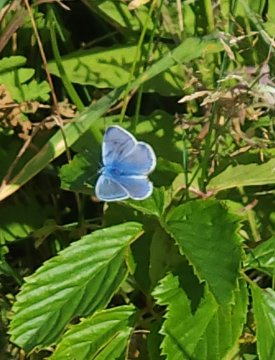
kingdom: Animalia
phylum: Arthropoda
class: Insecta
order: Lepidoptera
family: Lycaenidae
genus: Polyommatus
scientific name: Polyommatus icarus
